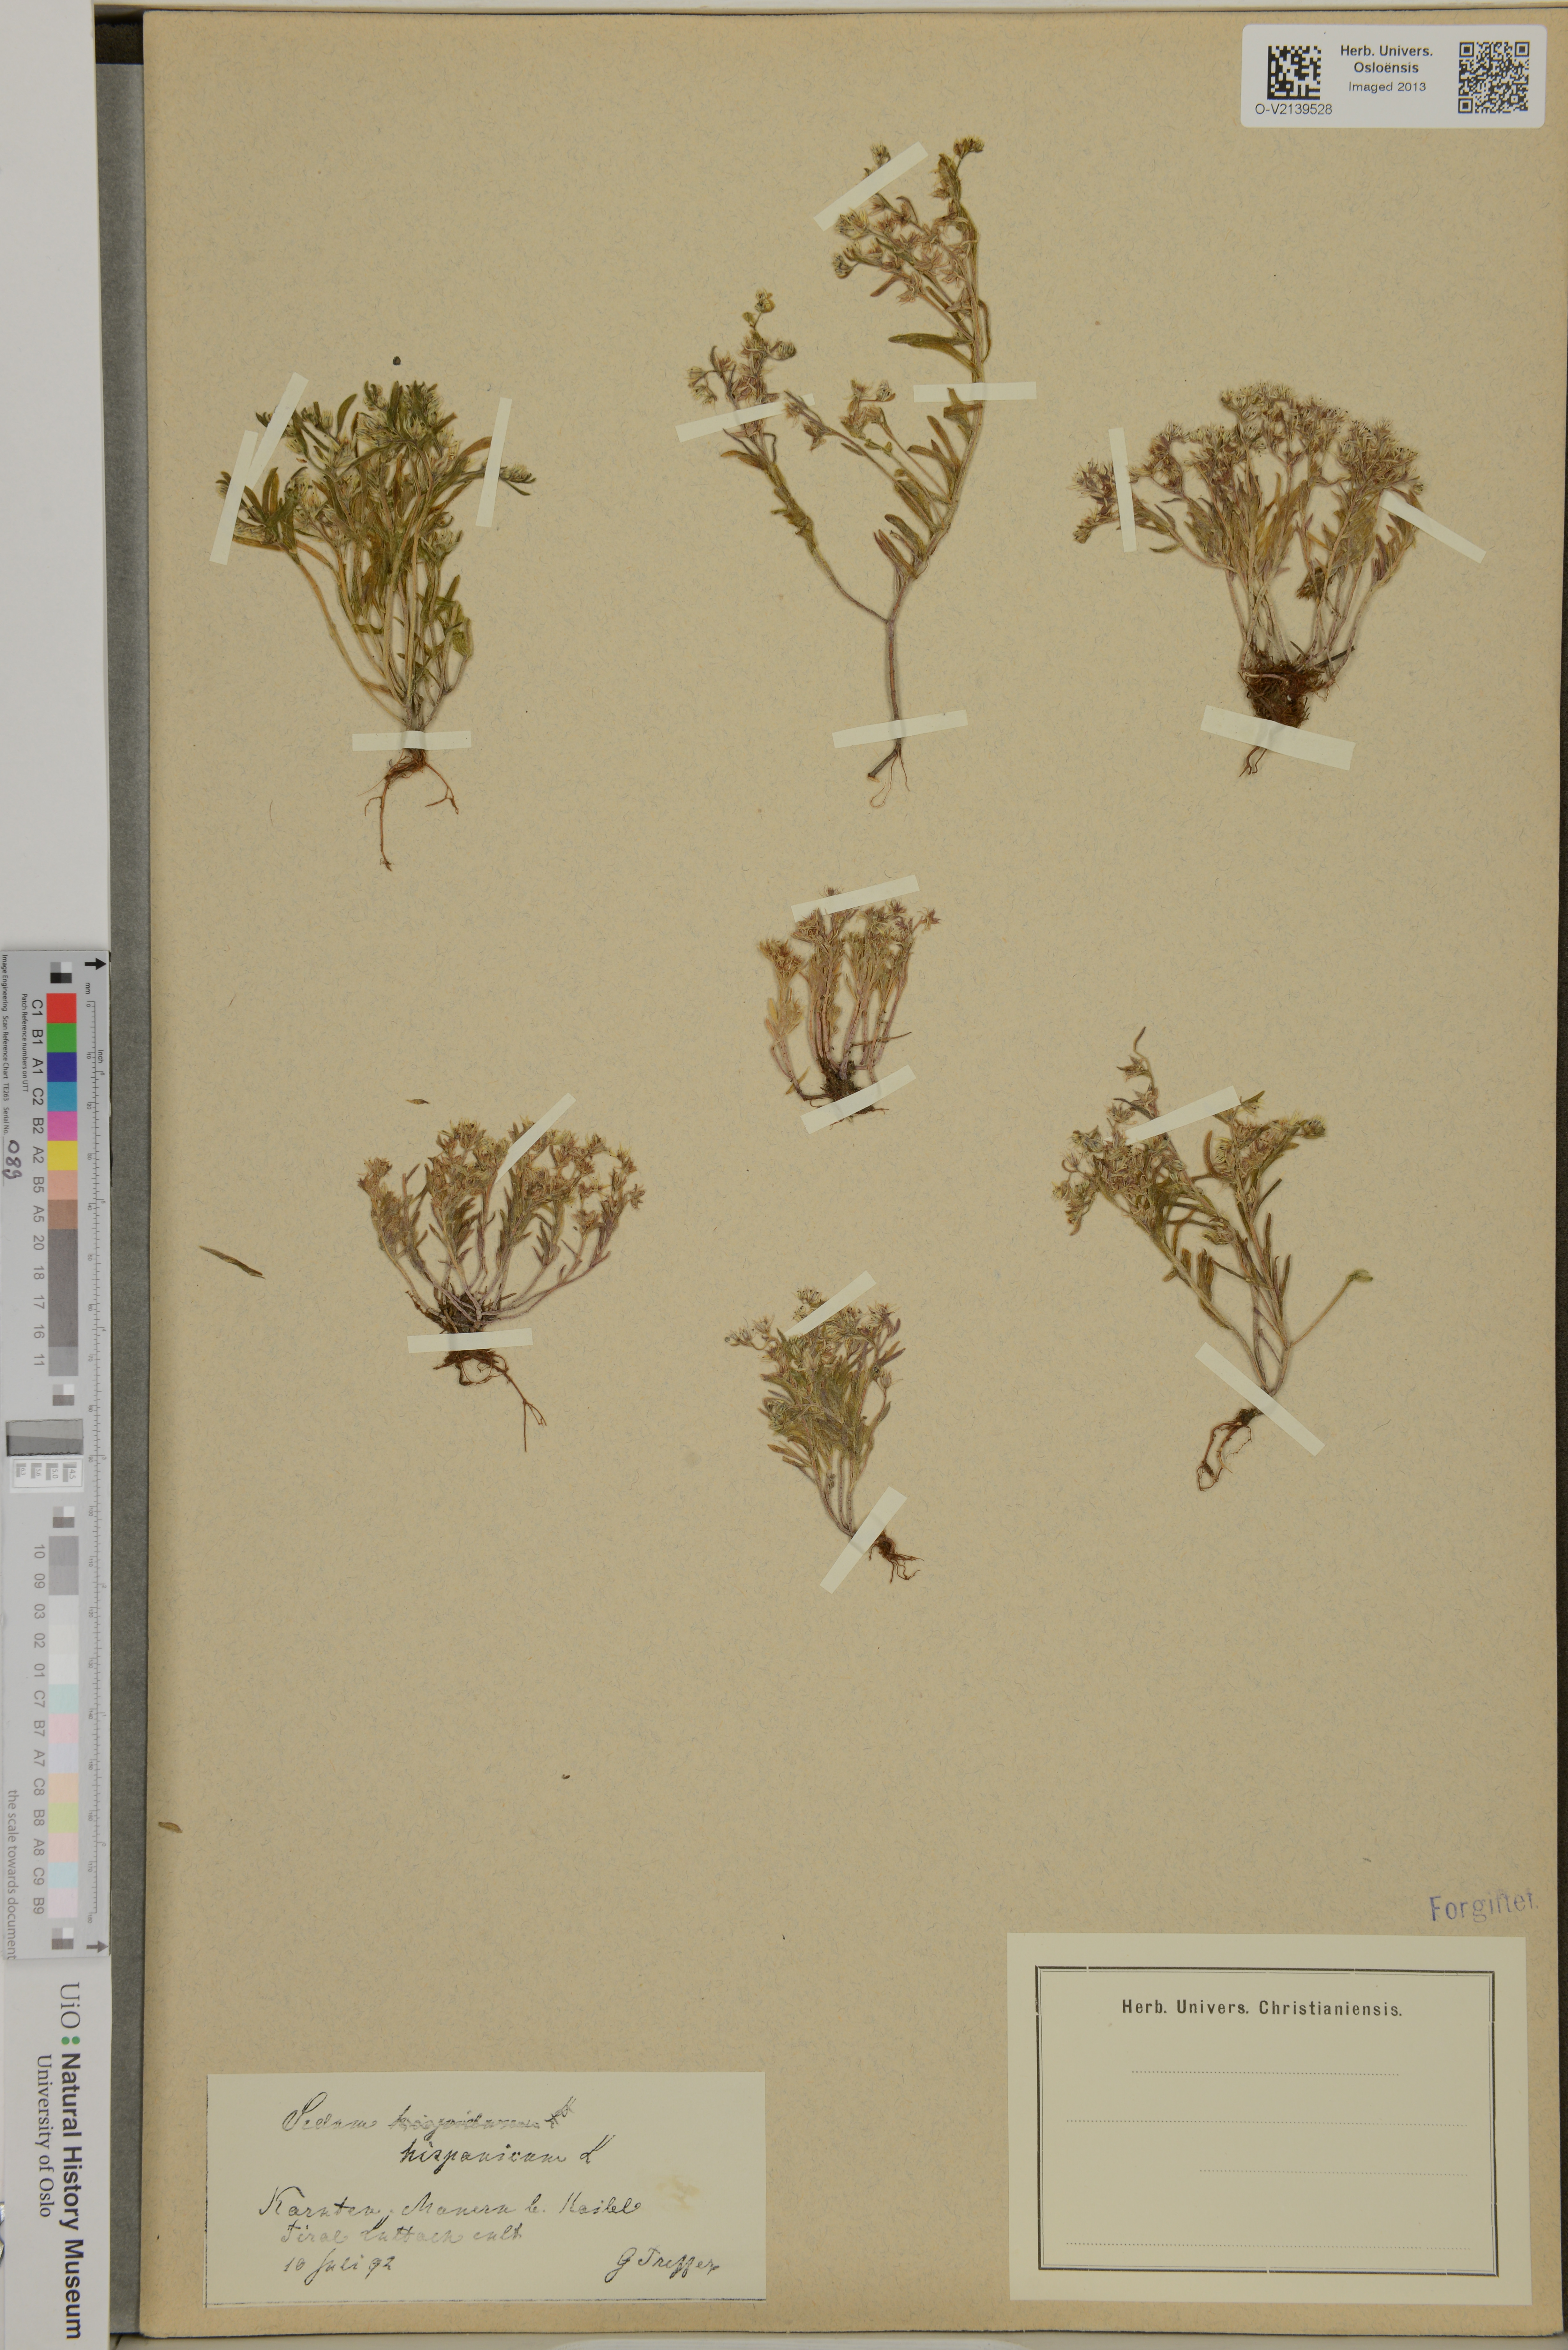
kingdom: Plantae
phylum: Tracheophyta
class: Magnoliopsida
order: Saxifragales
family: Crassulaceae
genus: Sedum
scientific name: Sedum hispanicum
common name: Spanish stonecrop
